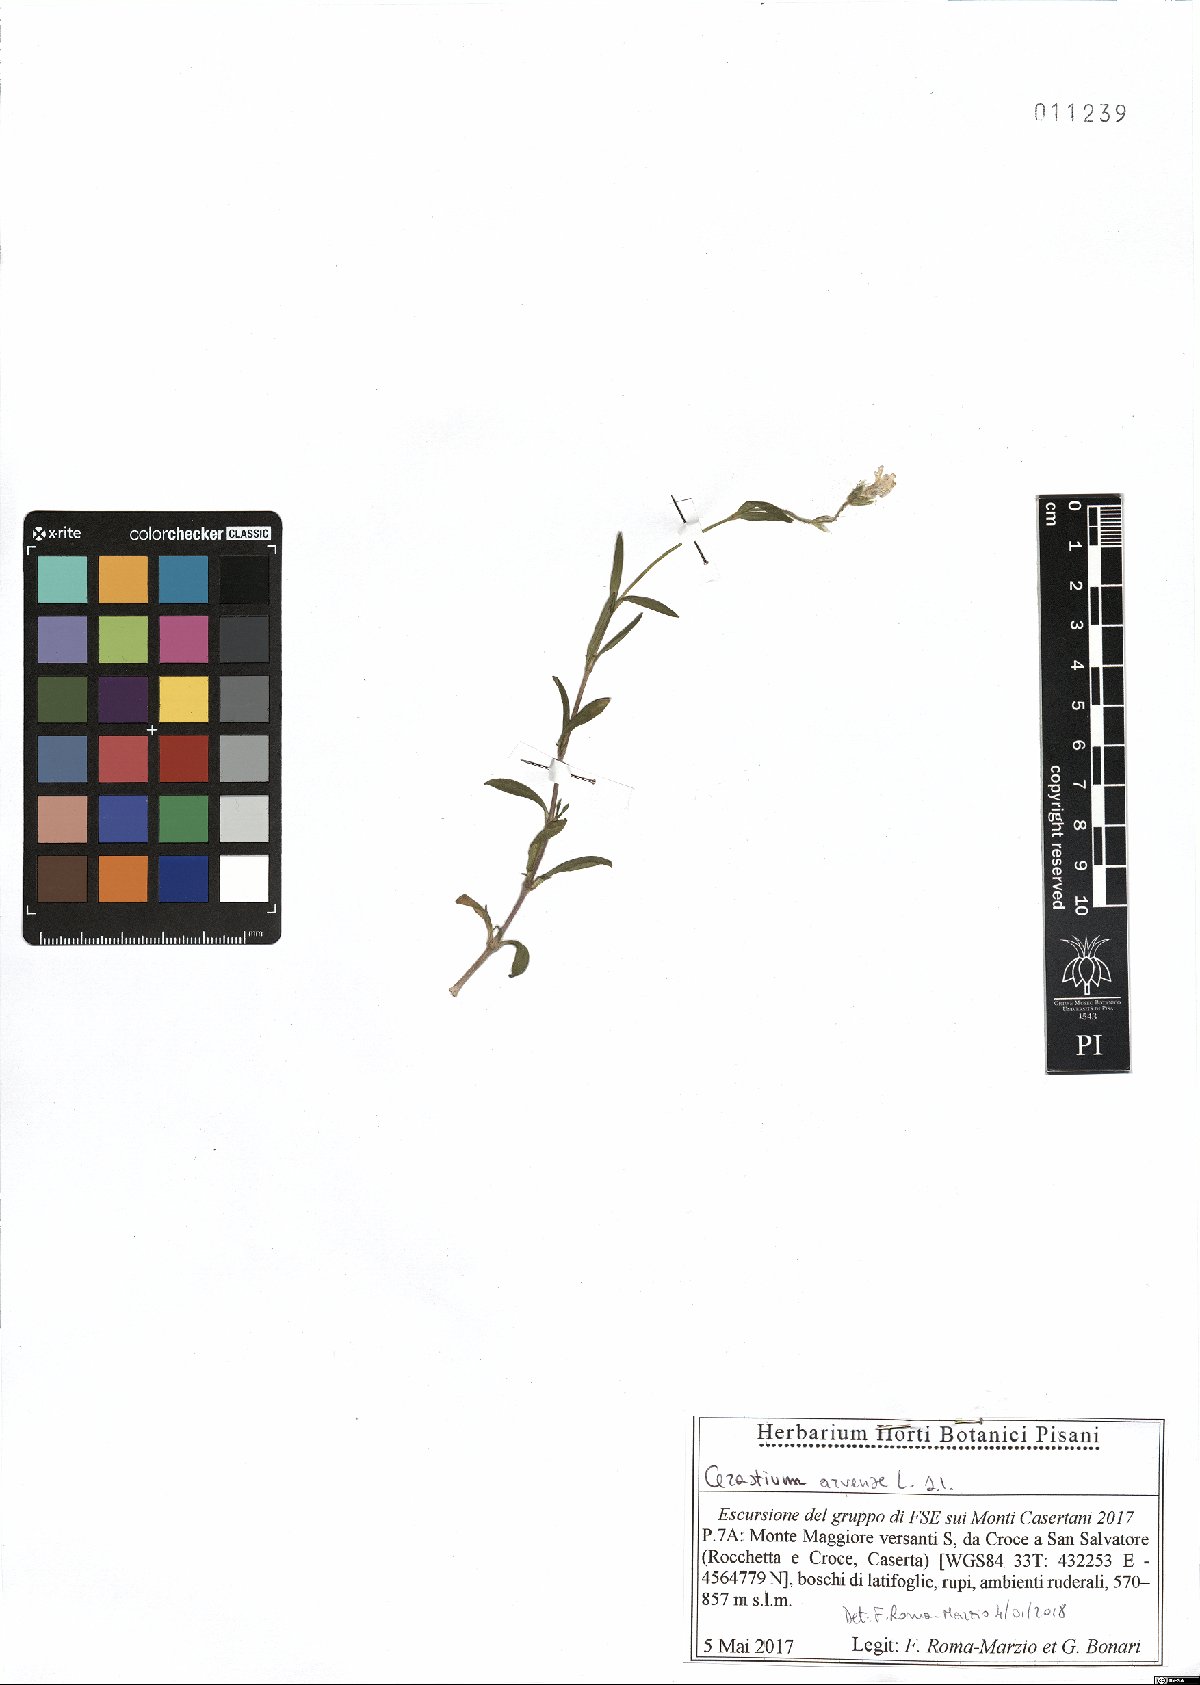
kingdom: Plantae
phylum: Tracheophyta
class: Magnoliopsida
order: Caryophyllales
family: Caryophyllaceae
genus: Cerastium
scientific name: Cerastium arvense
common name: Field mouse-ear
